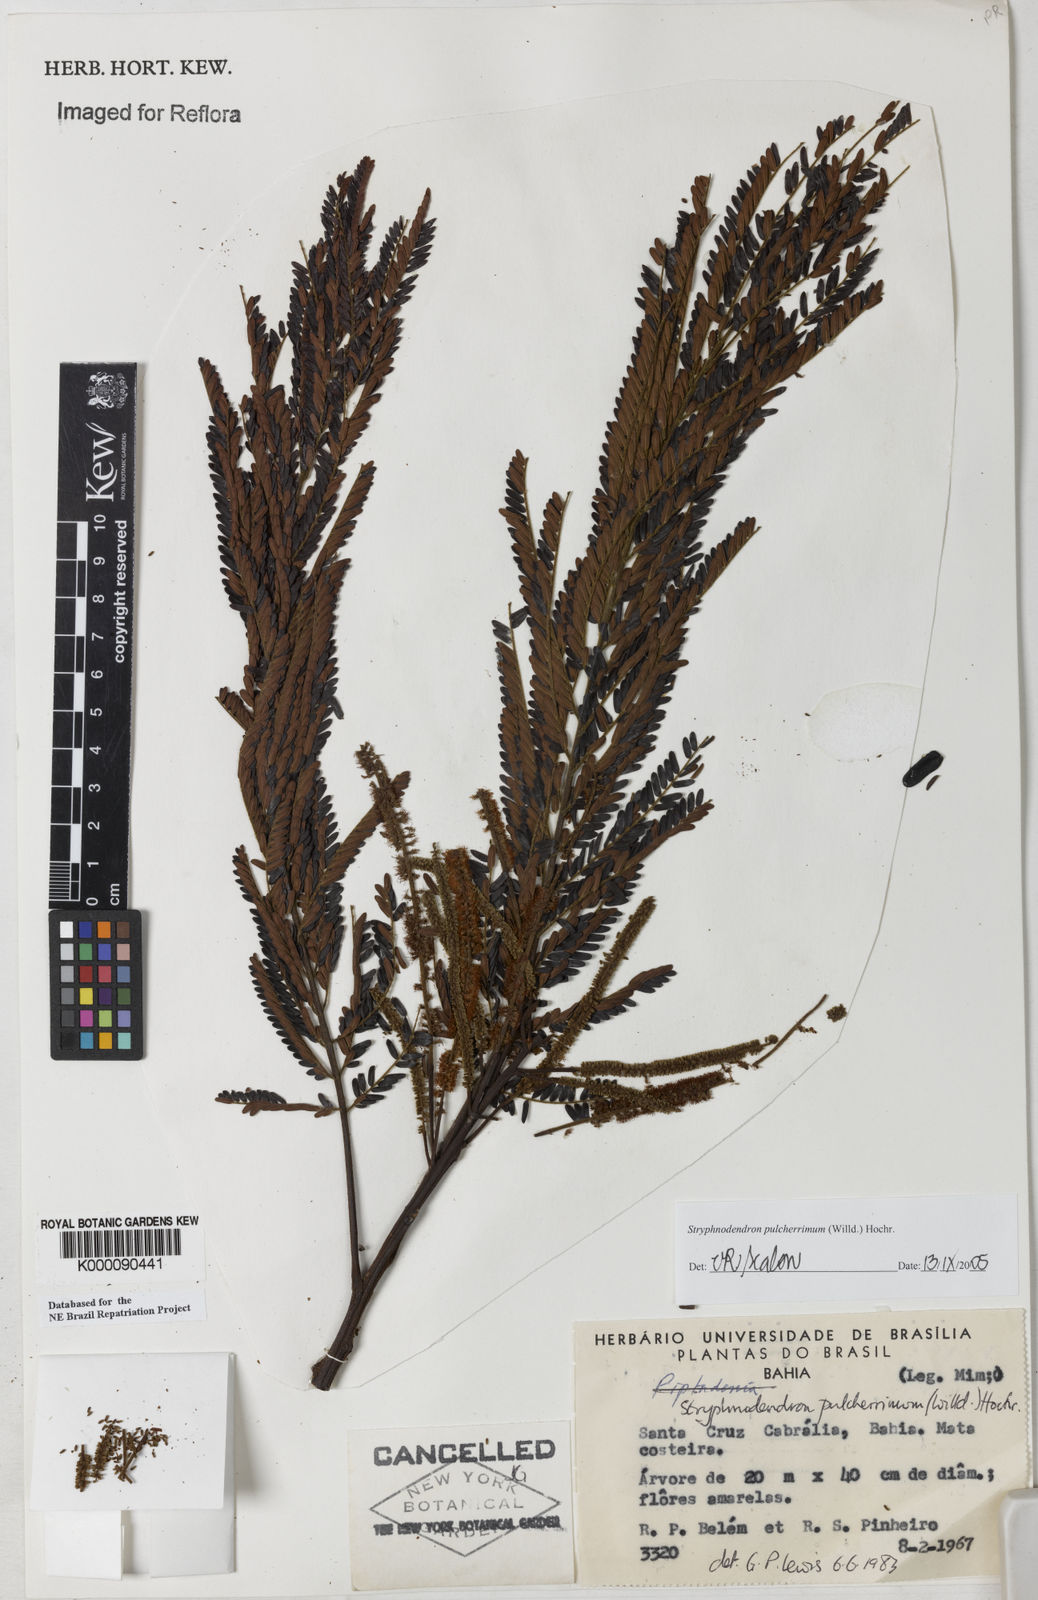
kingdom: Plantae
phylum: Tracheophyta
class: Magnoliopsida
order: Fabales
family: Fabaceae
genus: Stryphnodendron
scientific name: Stryphnodendron pulcherrimum
